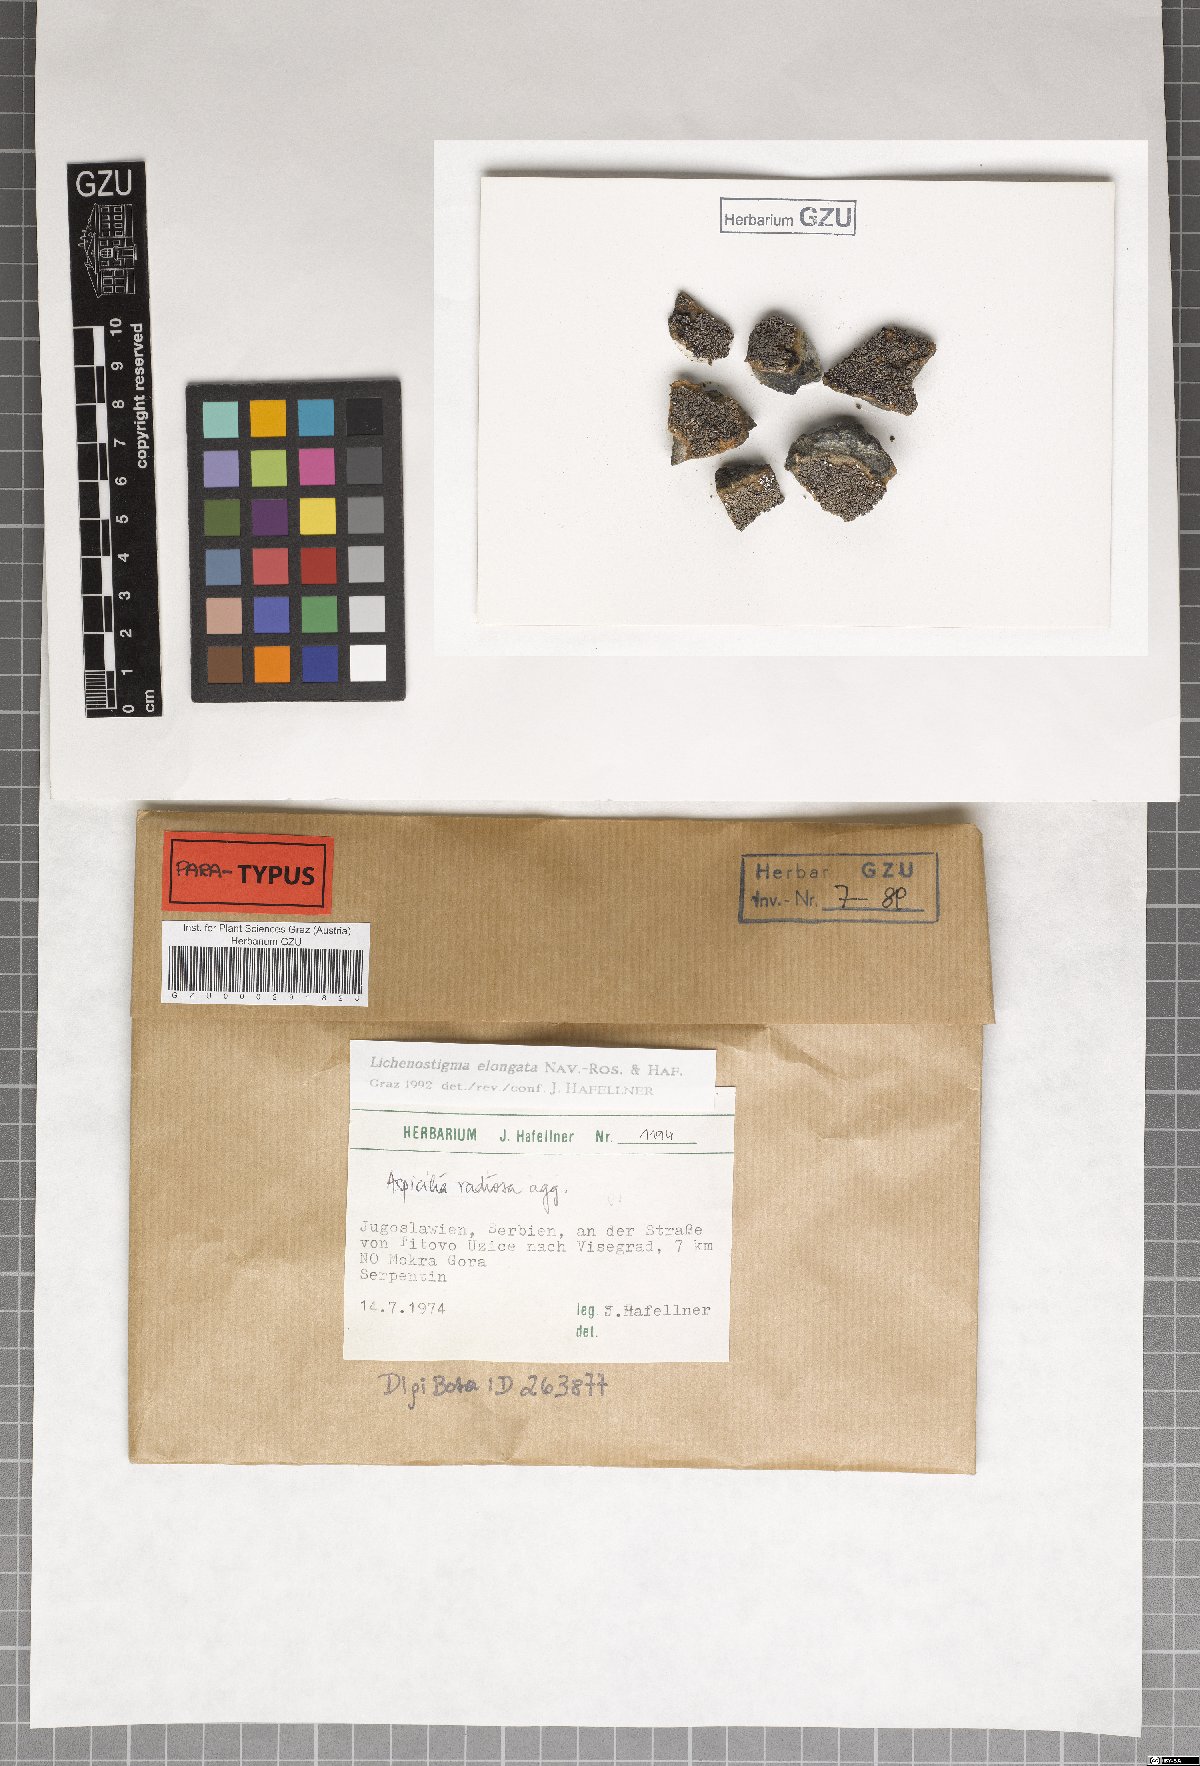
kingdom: Fungi
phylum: Ascomycota
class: Arthoniomycetes
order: Lichenostigmatales
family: Phaeococcomycetaceae
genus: Lichenostigma
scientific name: Lichenostigma elongatum
